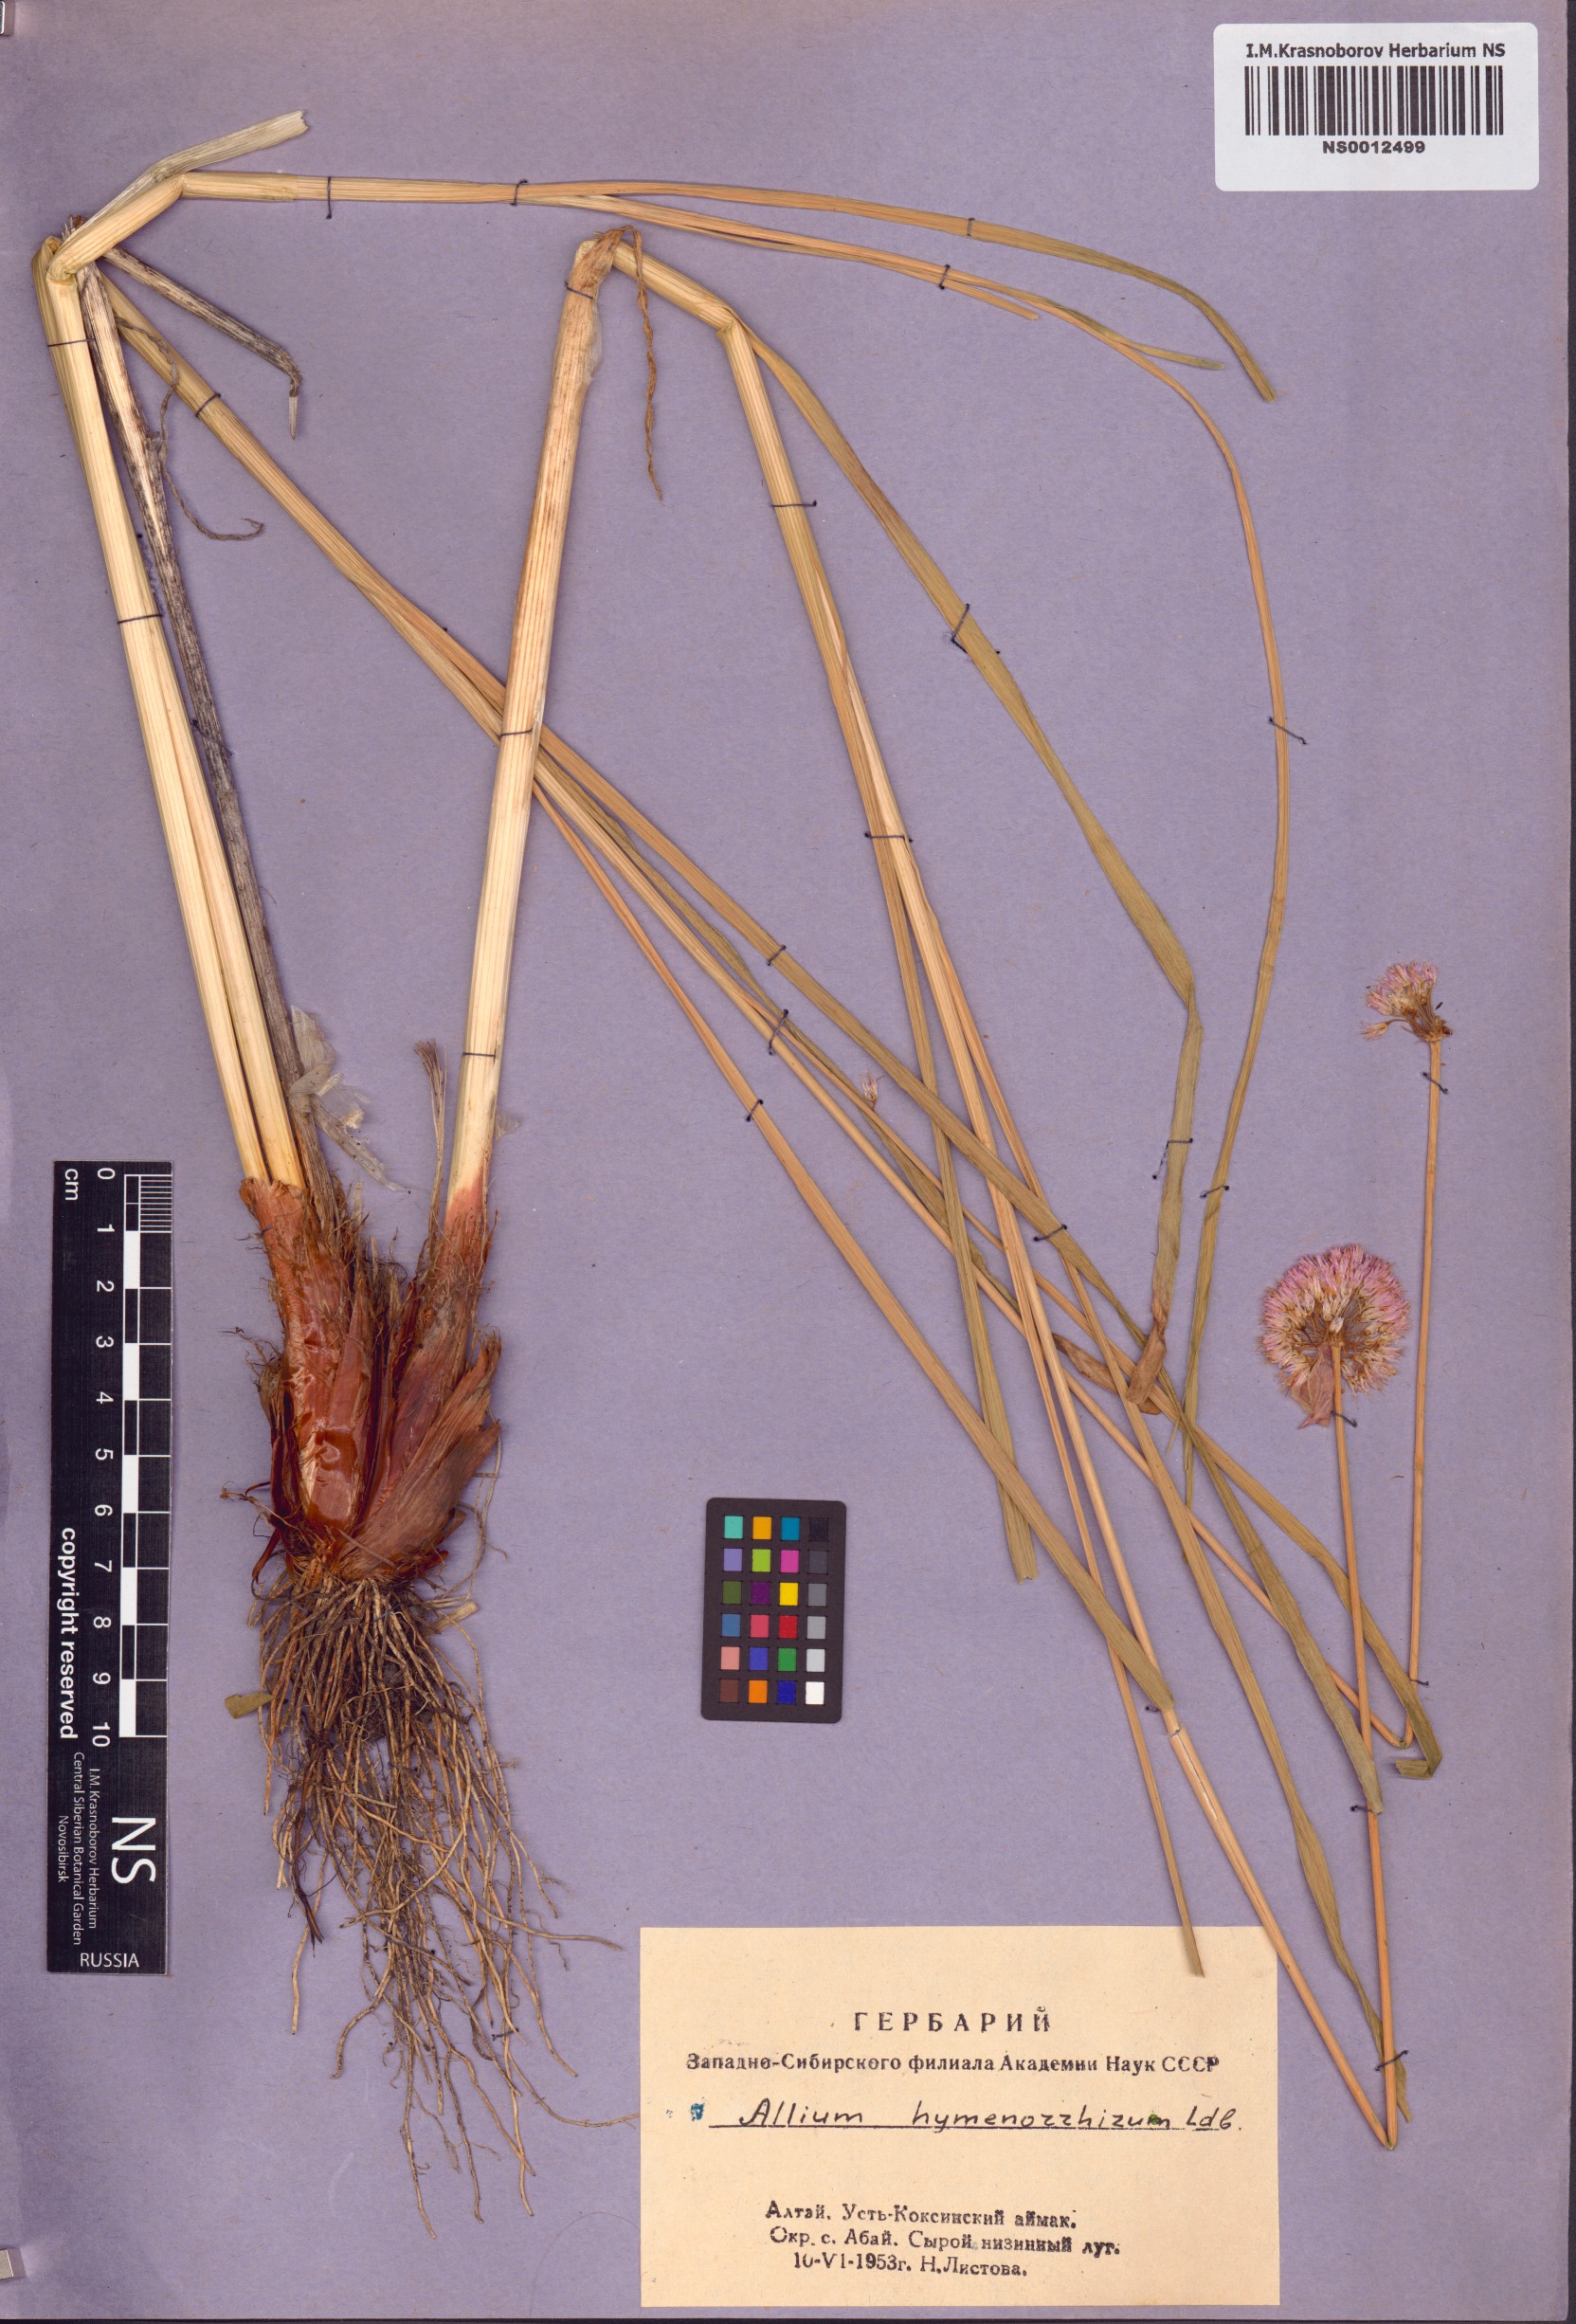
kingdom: Plantae
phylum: Tracheophyta
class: Liliopsida
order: Asparagales
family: Amaryllidaceae
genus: Allium
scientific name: Allium hymenorhizum
